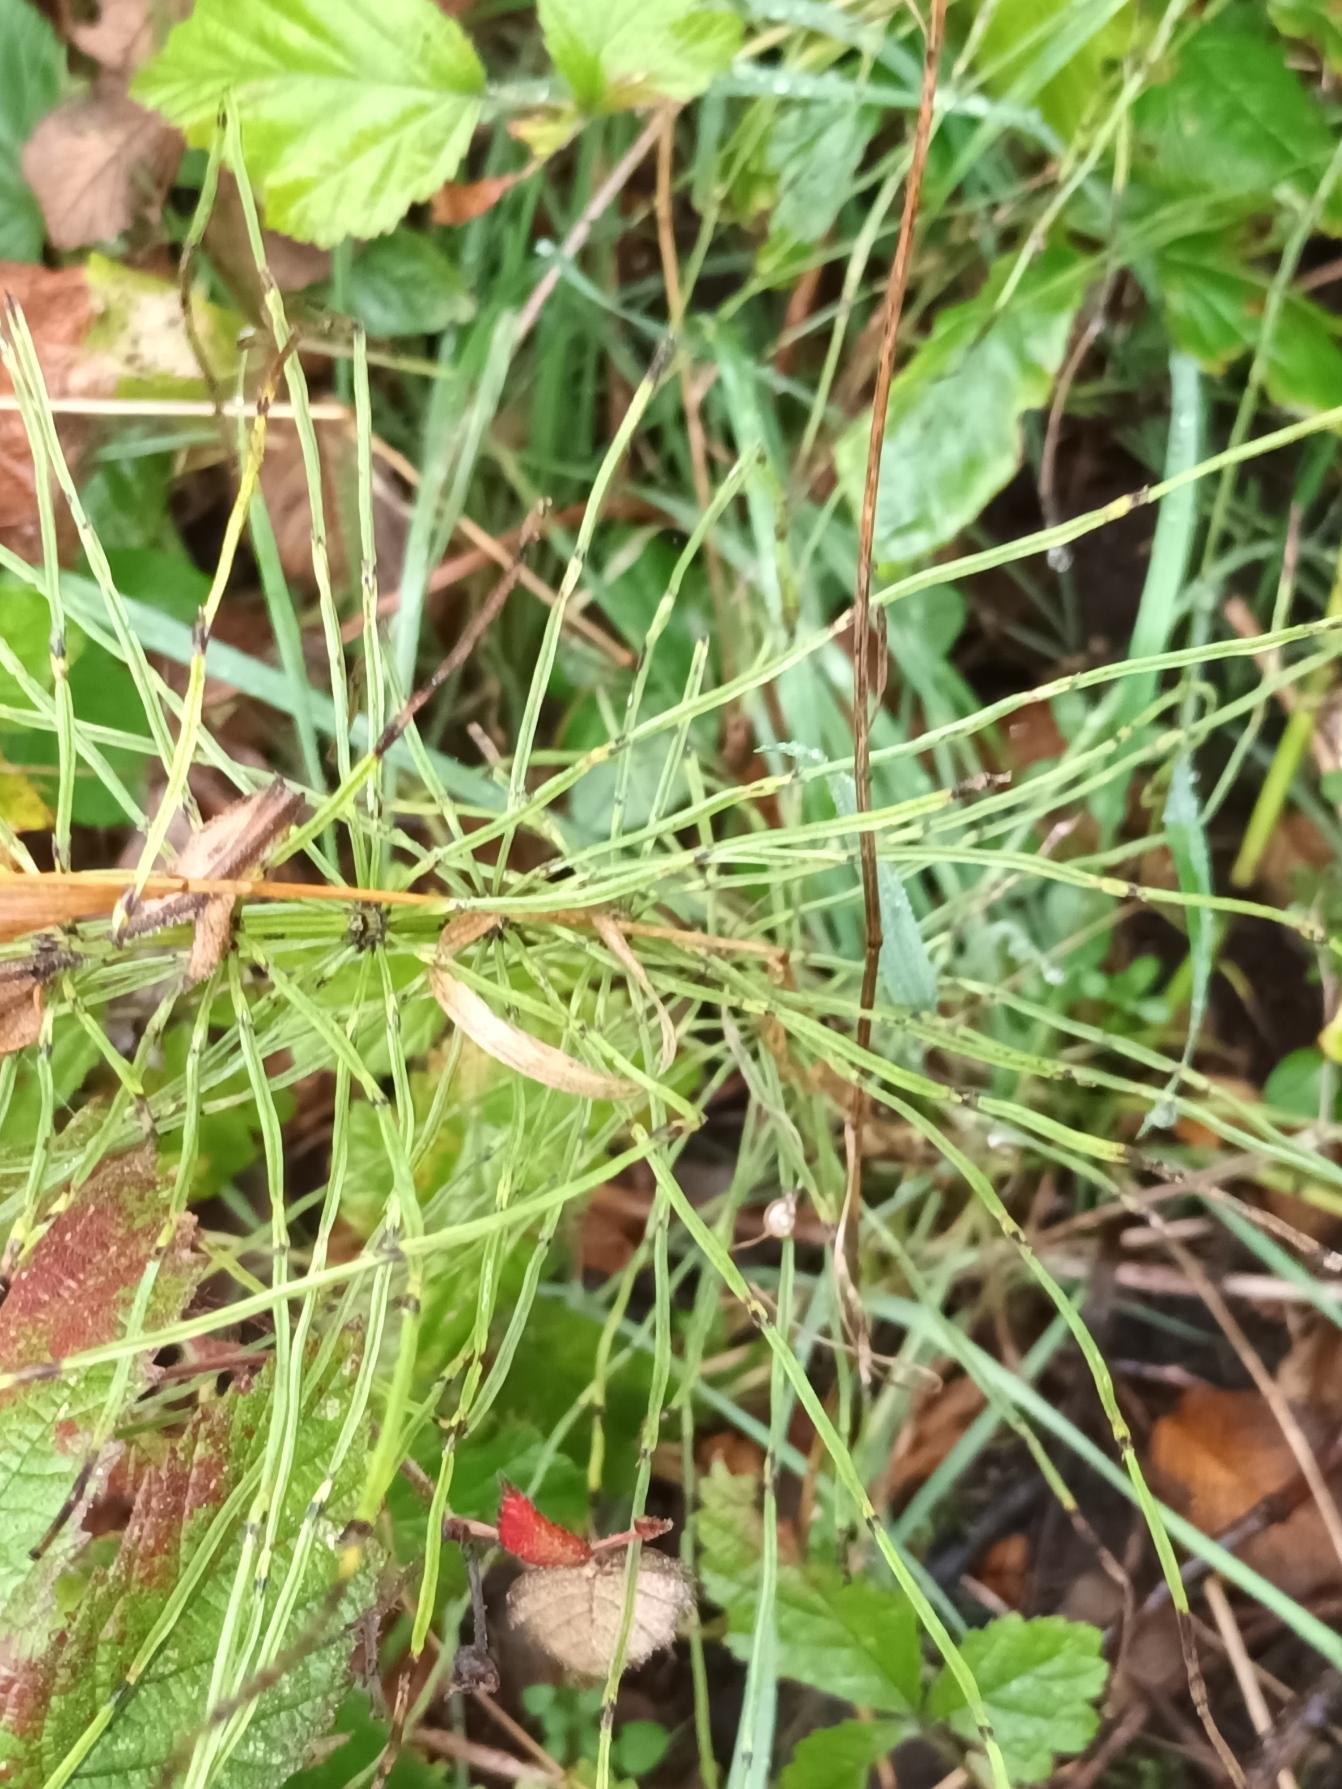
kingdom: Plantae
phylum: Tracheophyta
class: Polypodiopsida
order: Equisetales
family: Equisetaceae
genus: Equisetum
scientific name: Equisetum arvense
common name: Ager-padderok
